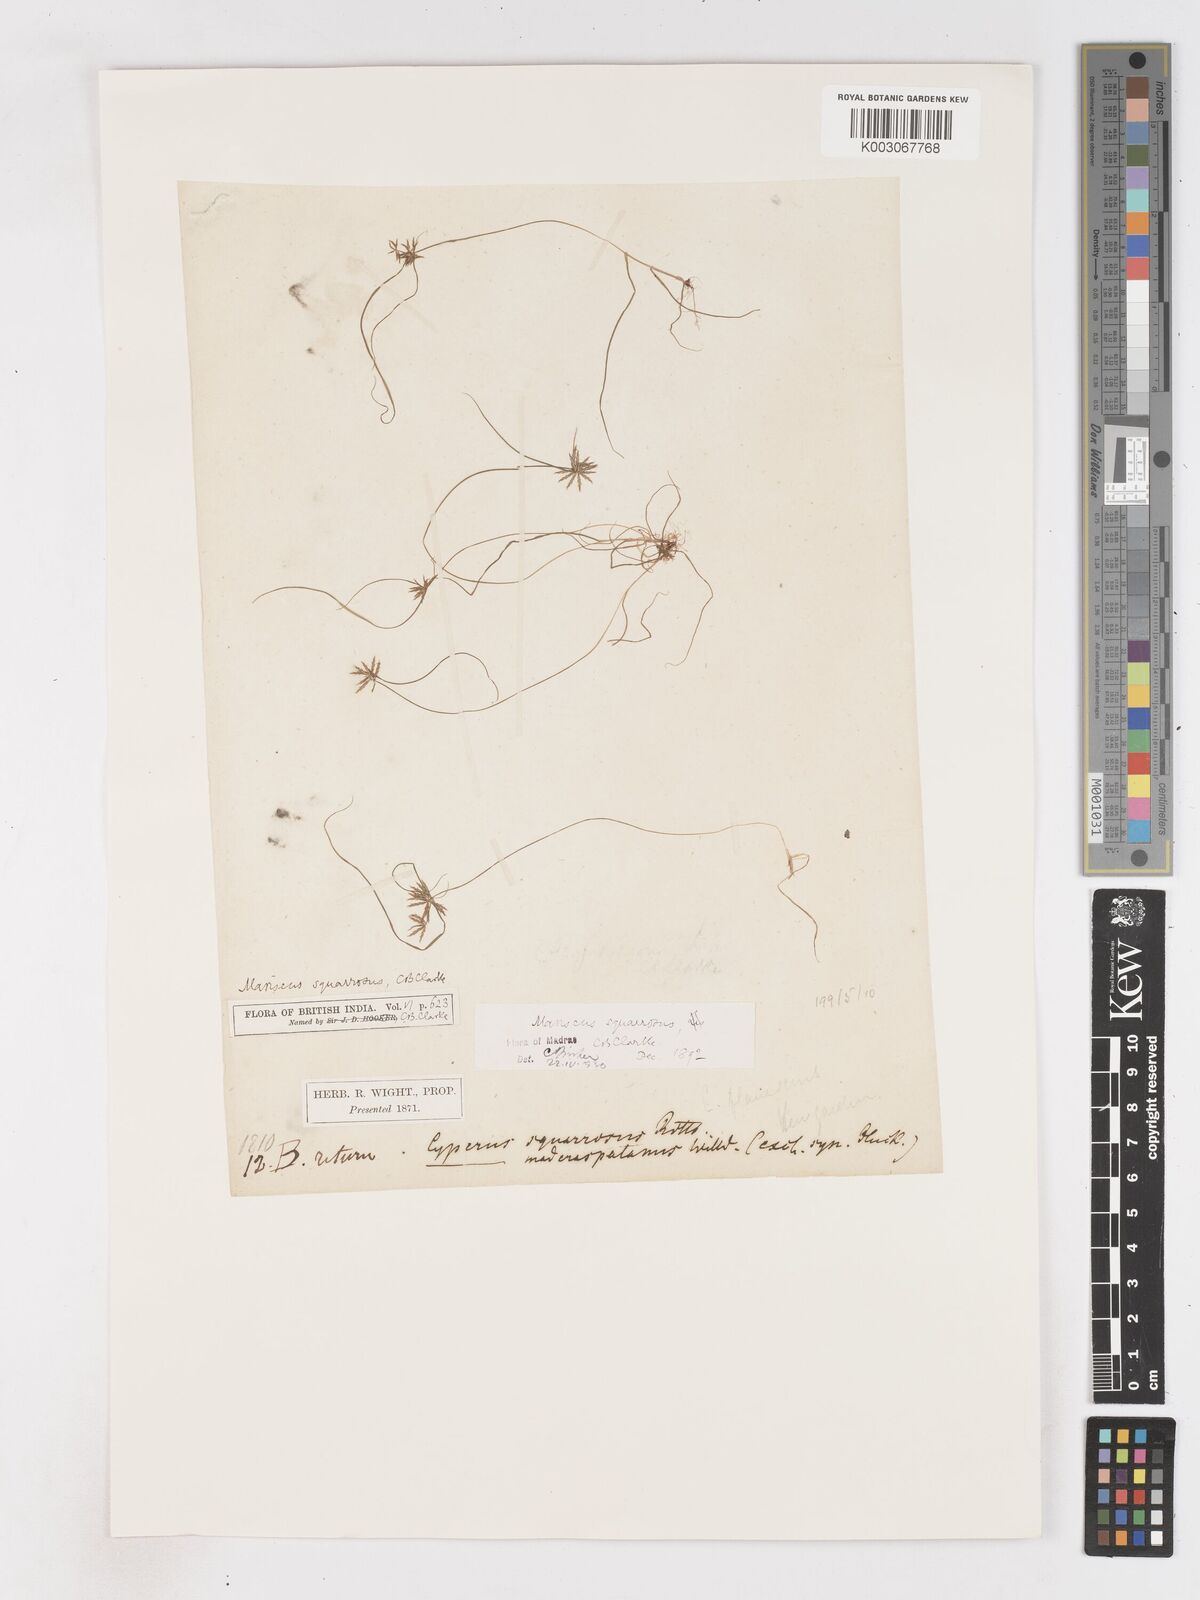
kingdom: Plantae
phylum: Tracheophyta
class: Liliopsida
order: Poales
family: Cyperaceae
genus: Cyperus
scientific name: Cyperus maderaspatanus
